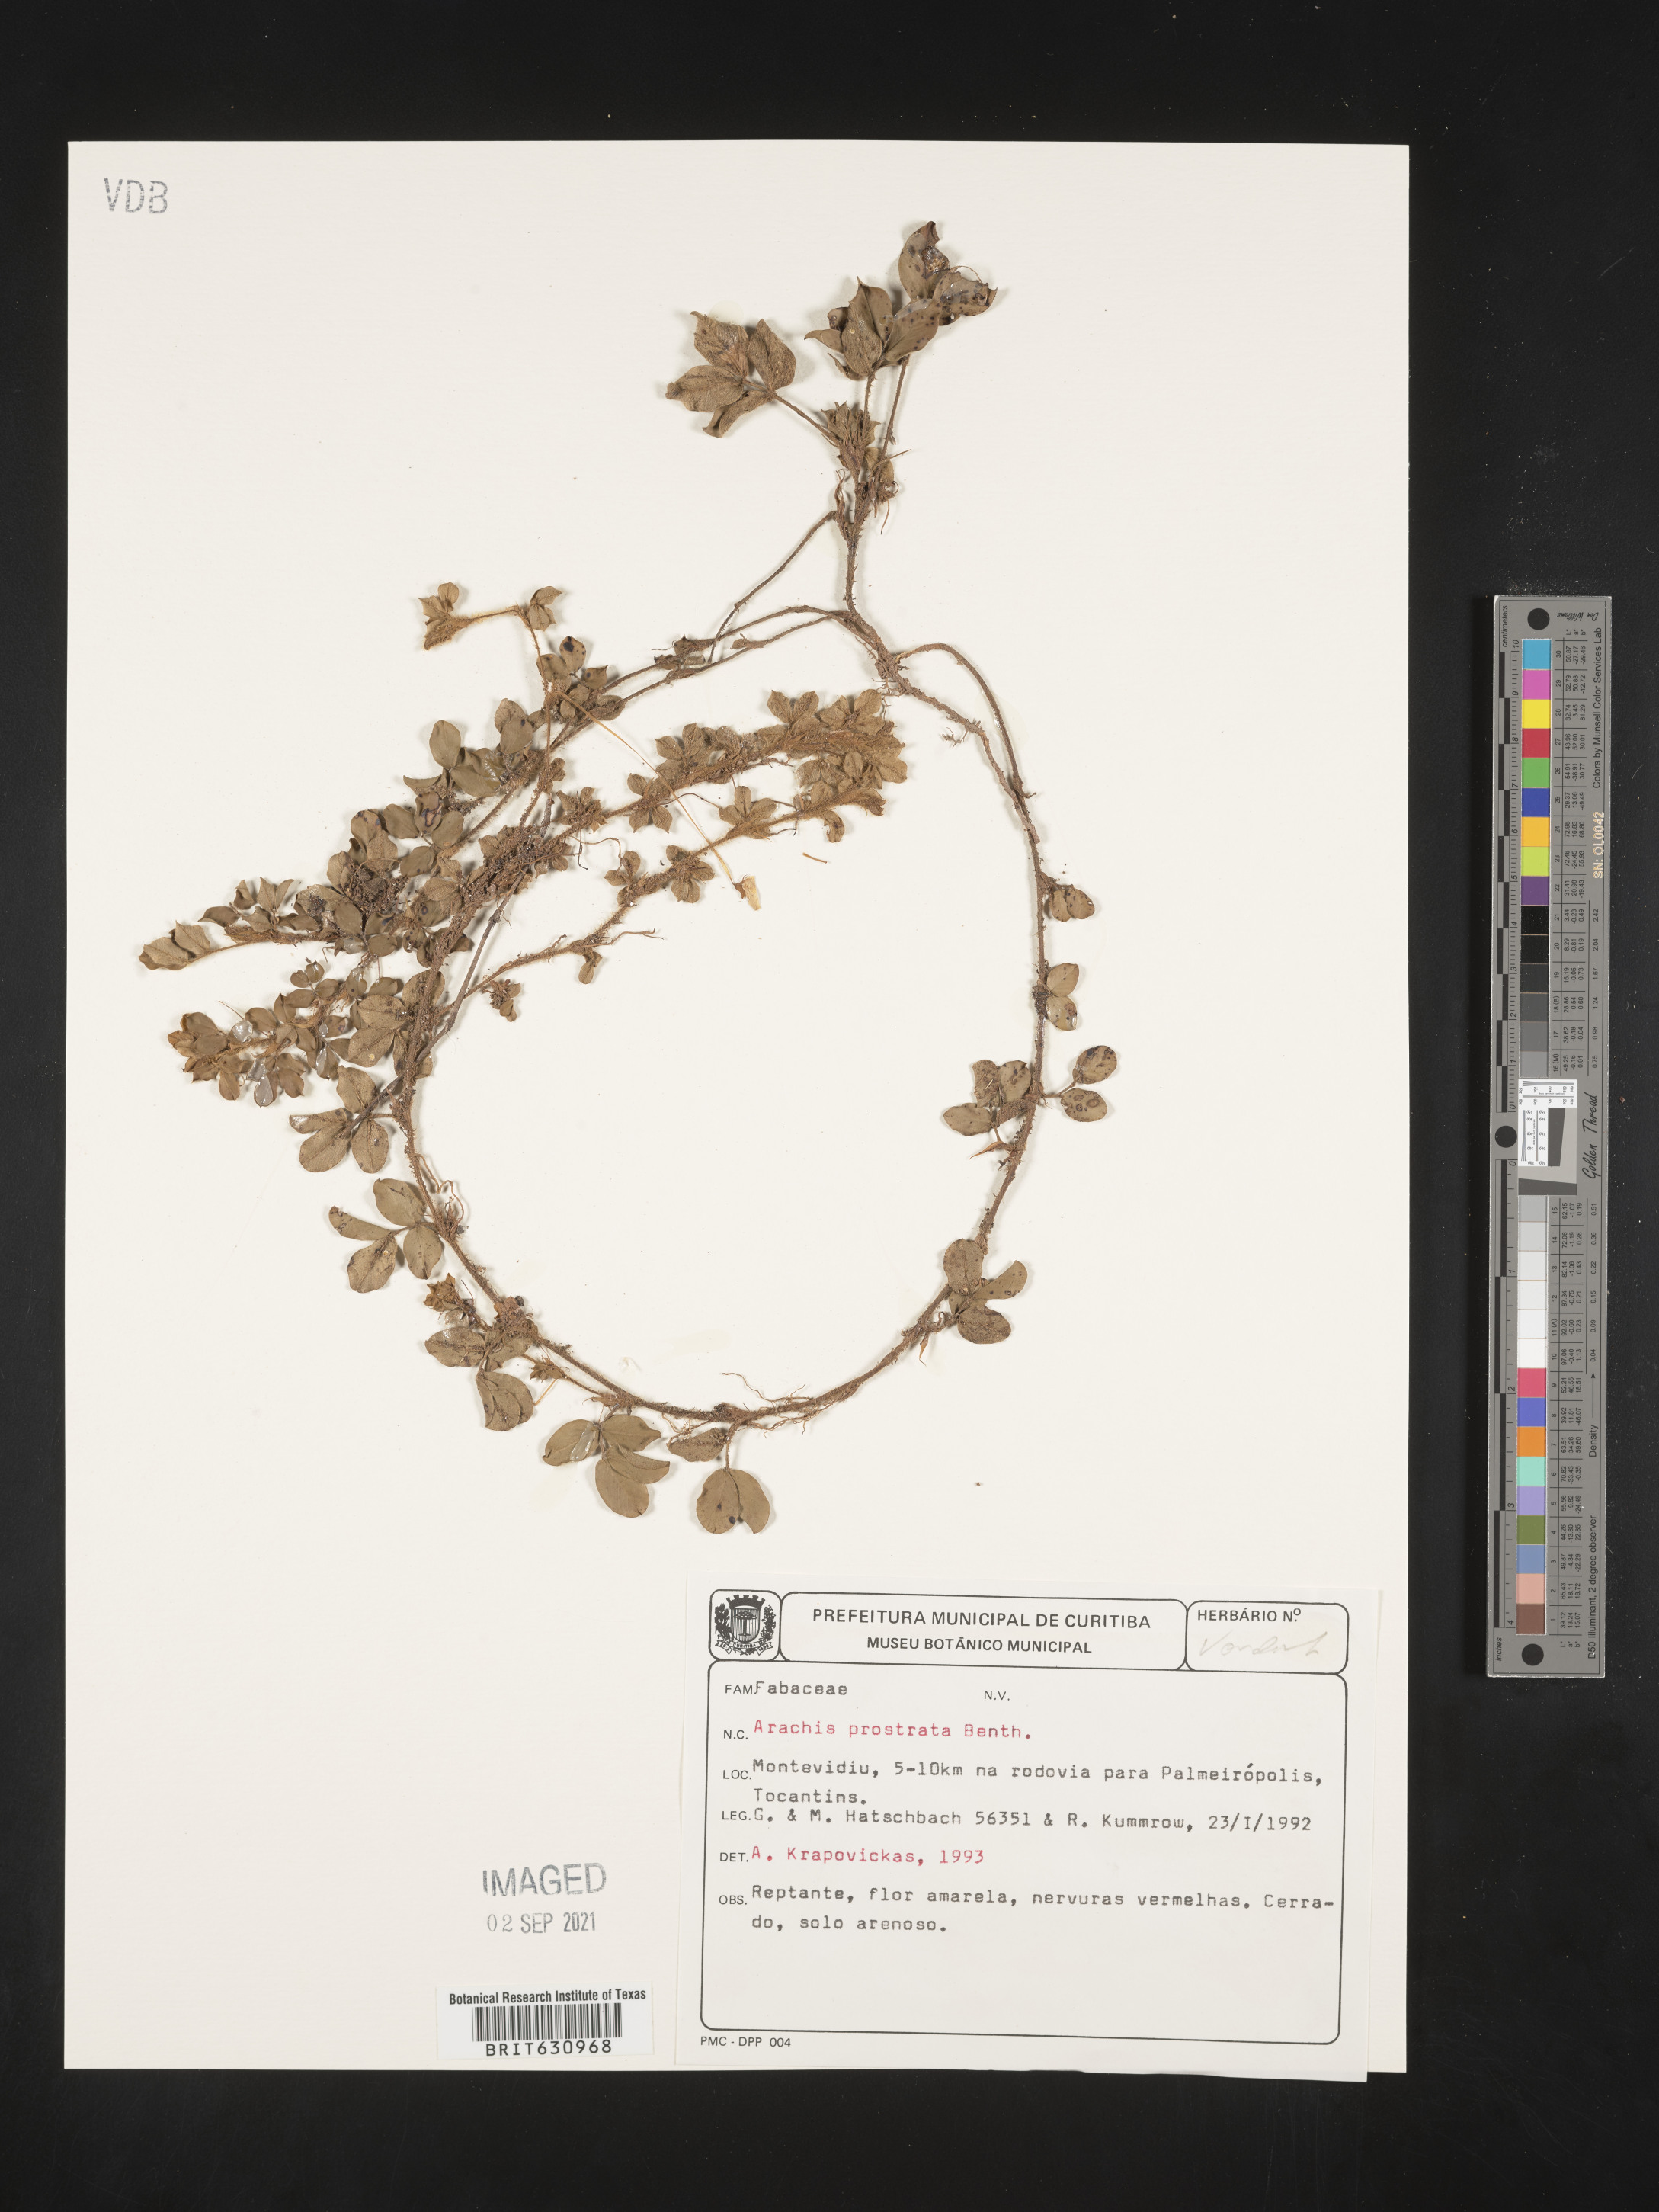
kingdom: Plantae
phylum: Tracheophyta
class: Magnoliopsida
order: Fabales
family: Fabaceae
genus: Arachis
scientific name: Arachis
